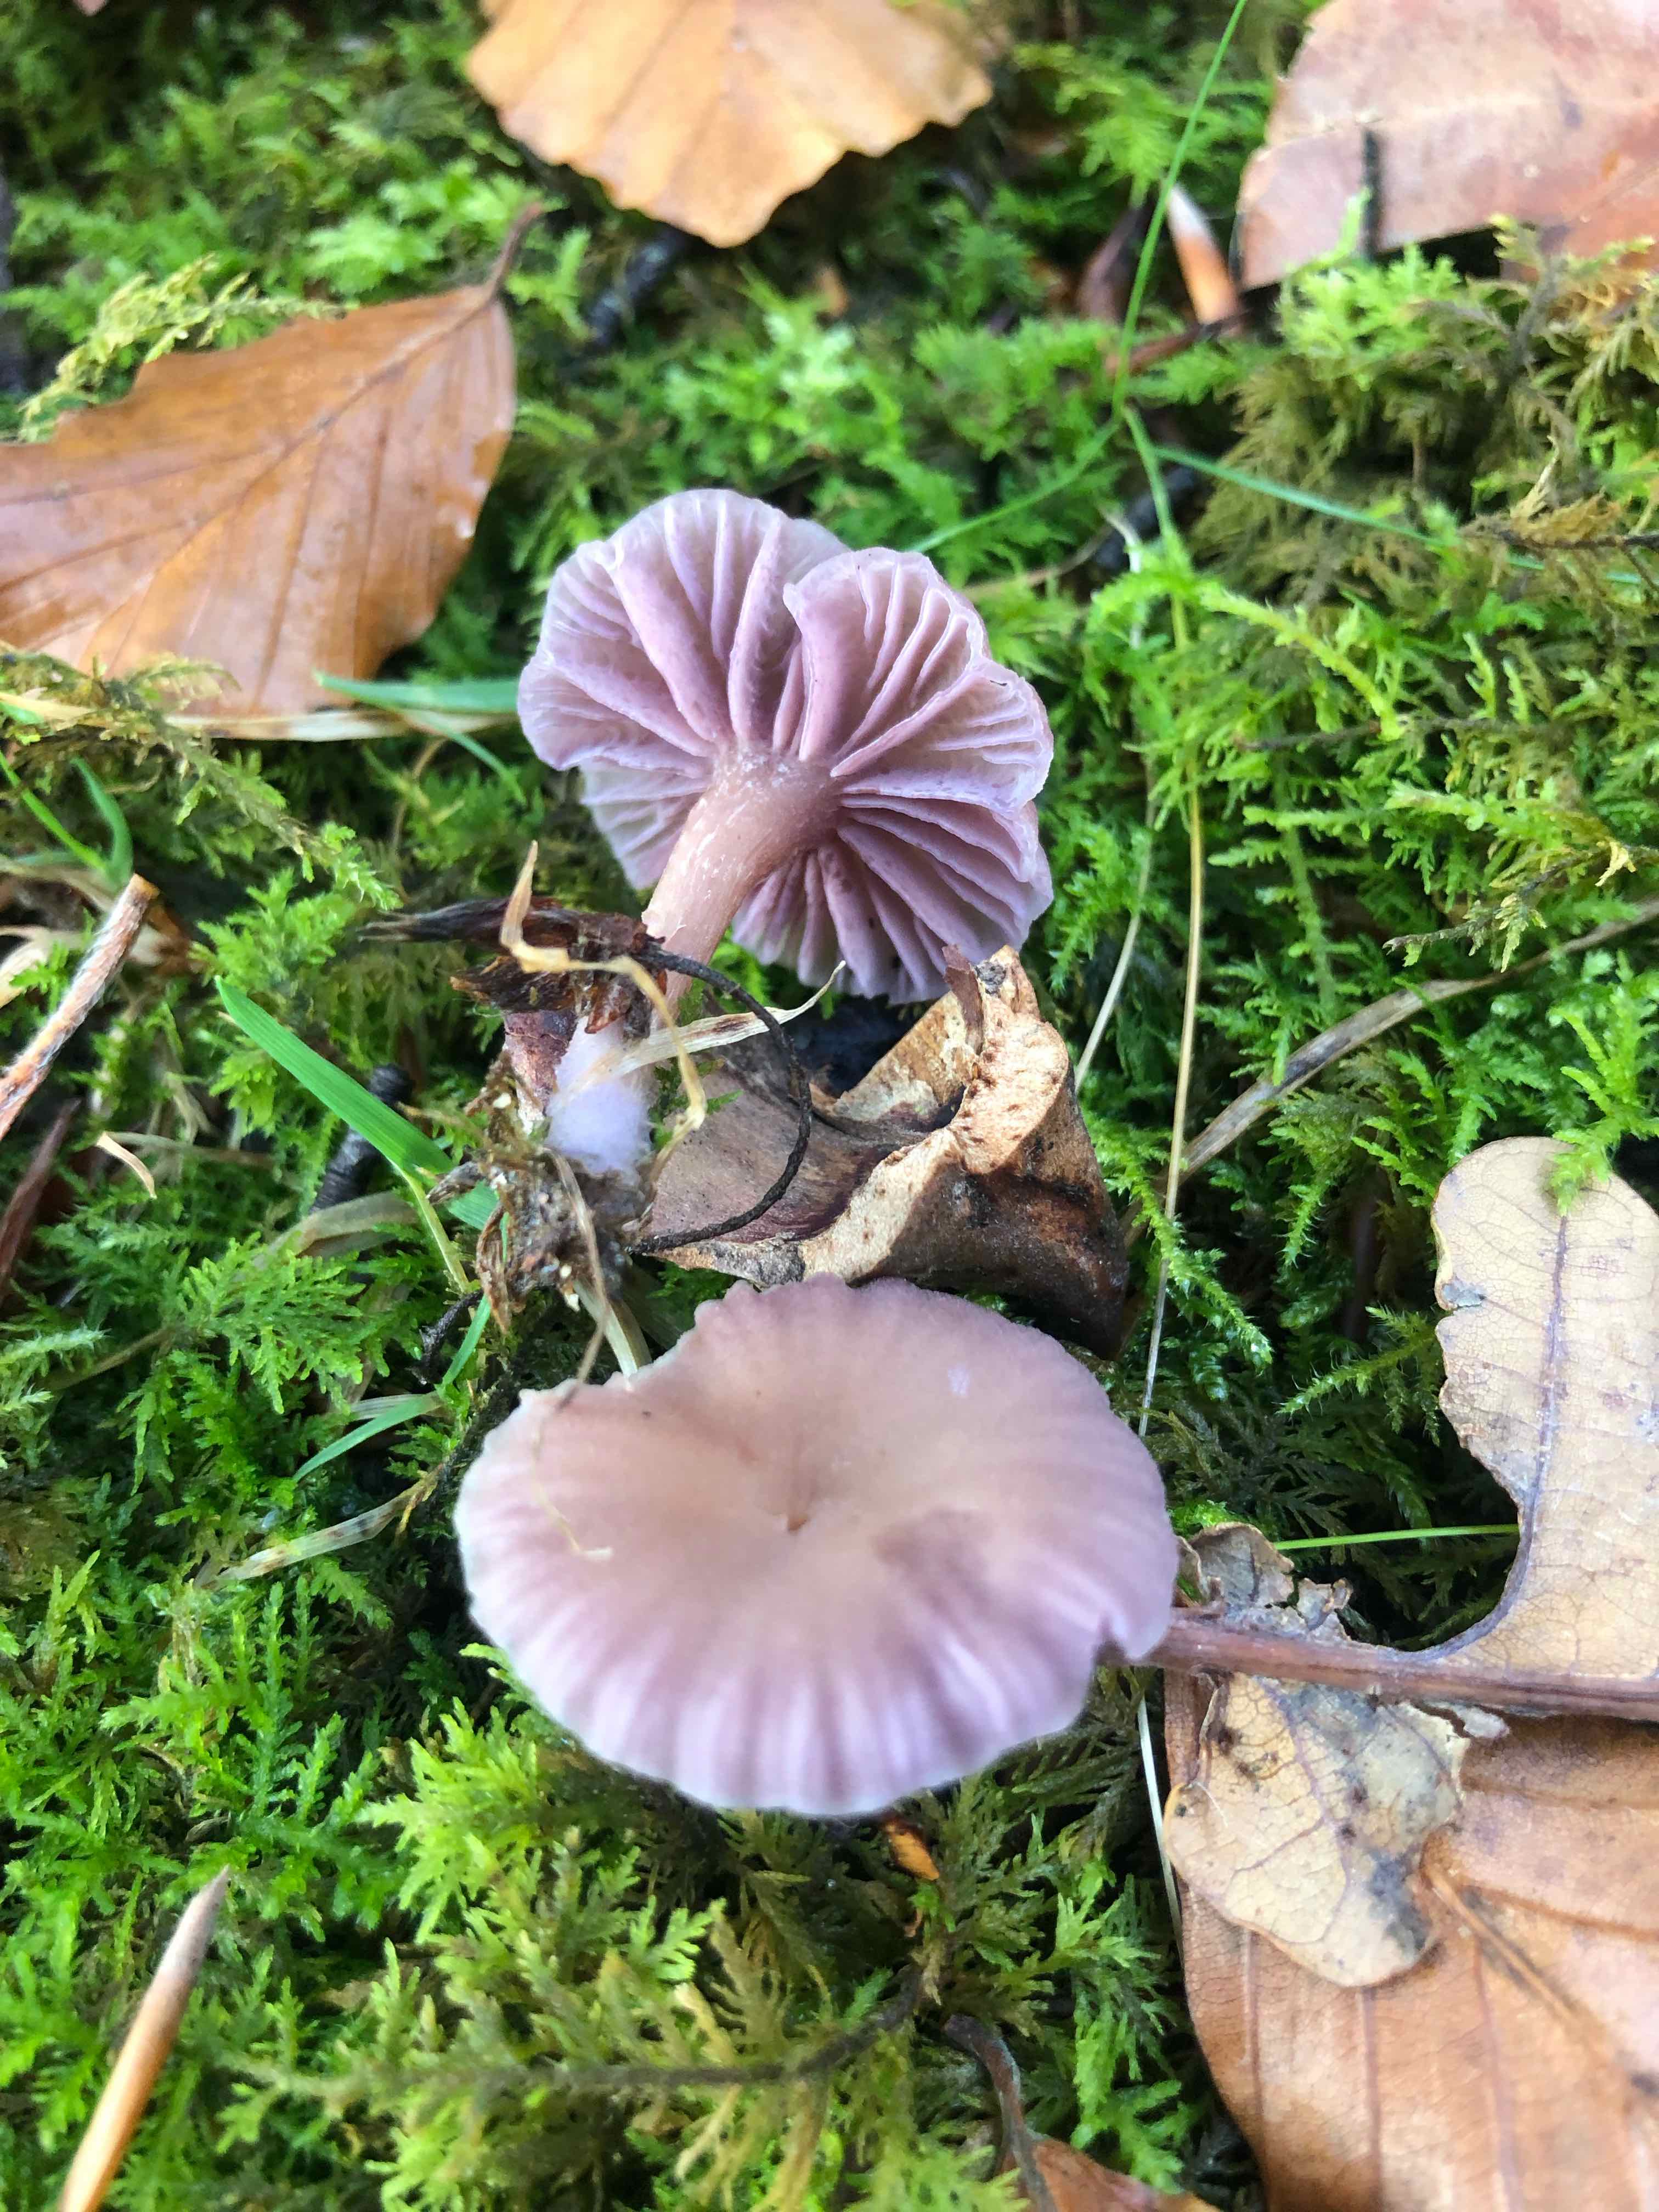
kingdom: Fungi
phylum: Basidiomycota
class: Agaricomycetes
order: Agaricales
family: Hydnangiaceae
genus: Laccaria
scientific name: Laccaria amethystina
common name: violet ametysthat
